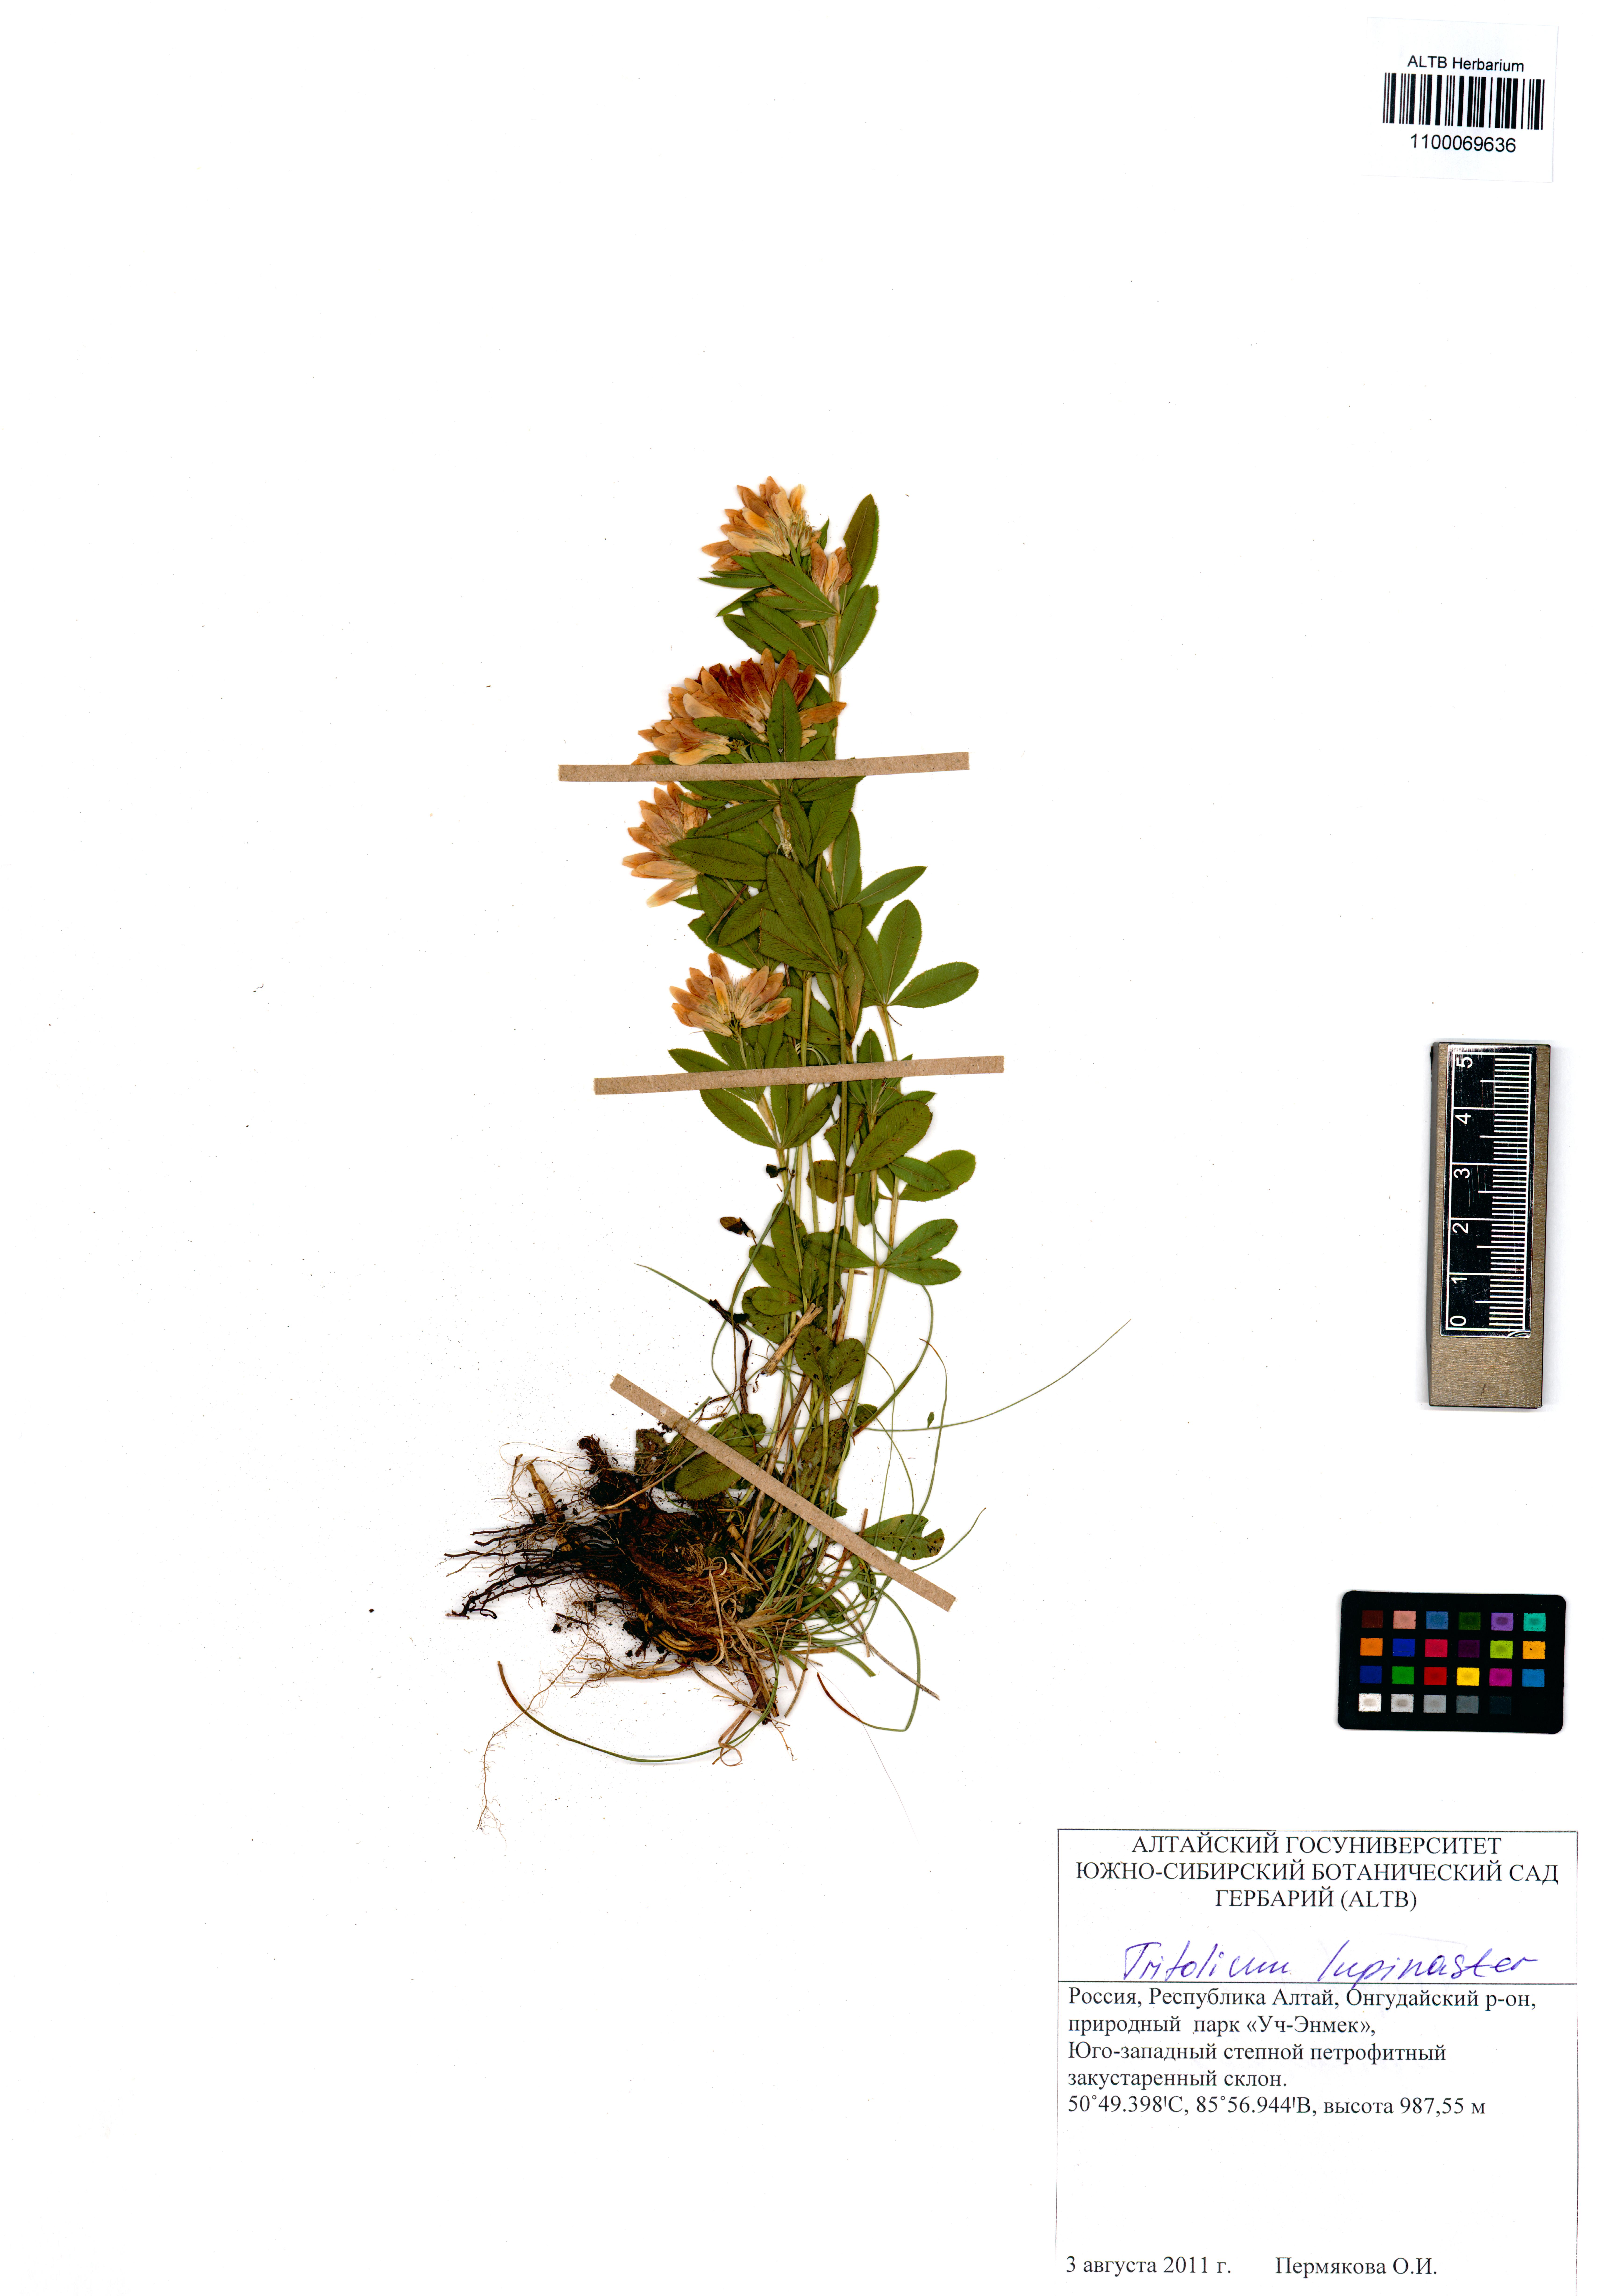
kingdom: Plantae
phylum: Tracheophyta
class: Magnoliopsida
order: Fabales
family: Fabaceae
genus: Trifolium
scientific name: Trifolium lupinaster
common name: Lupine clover
